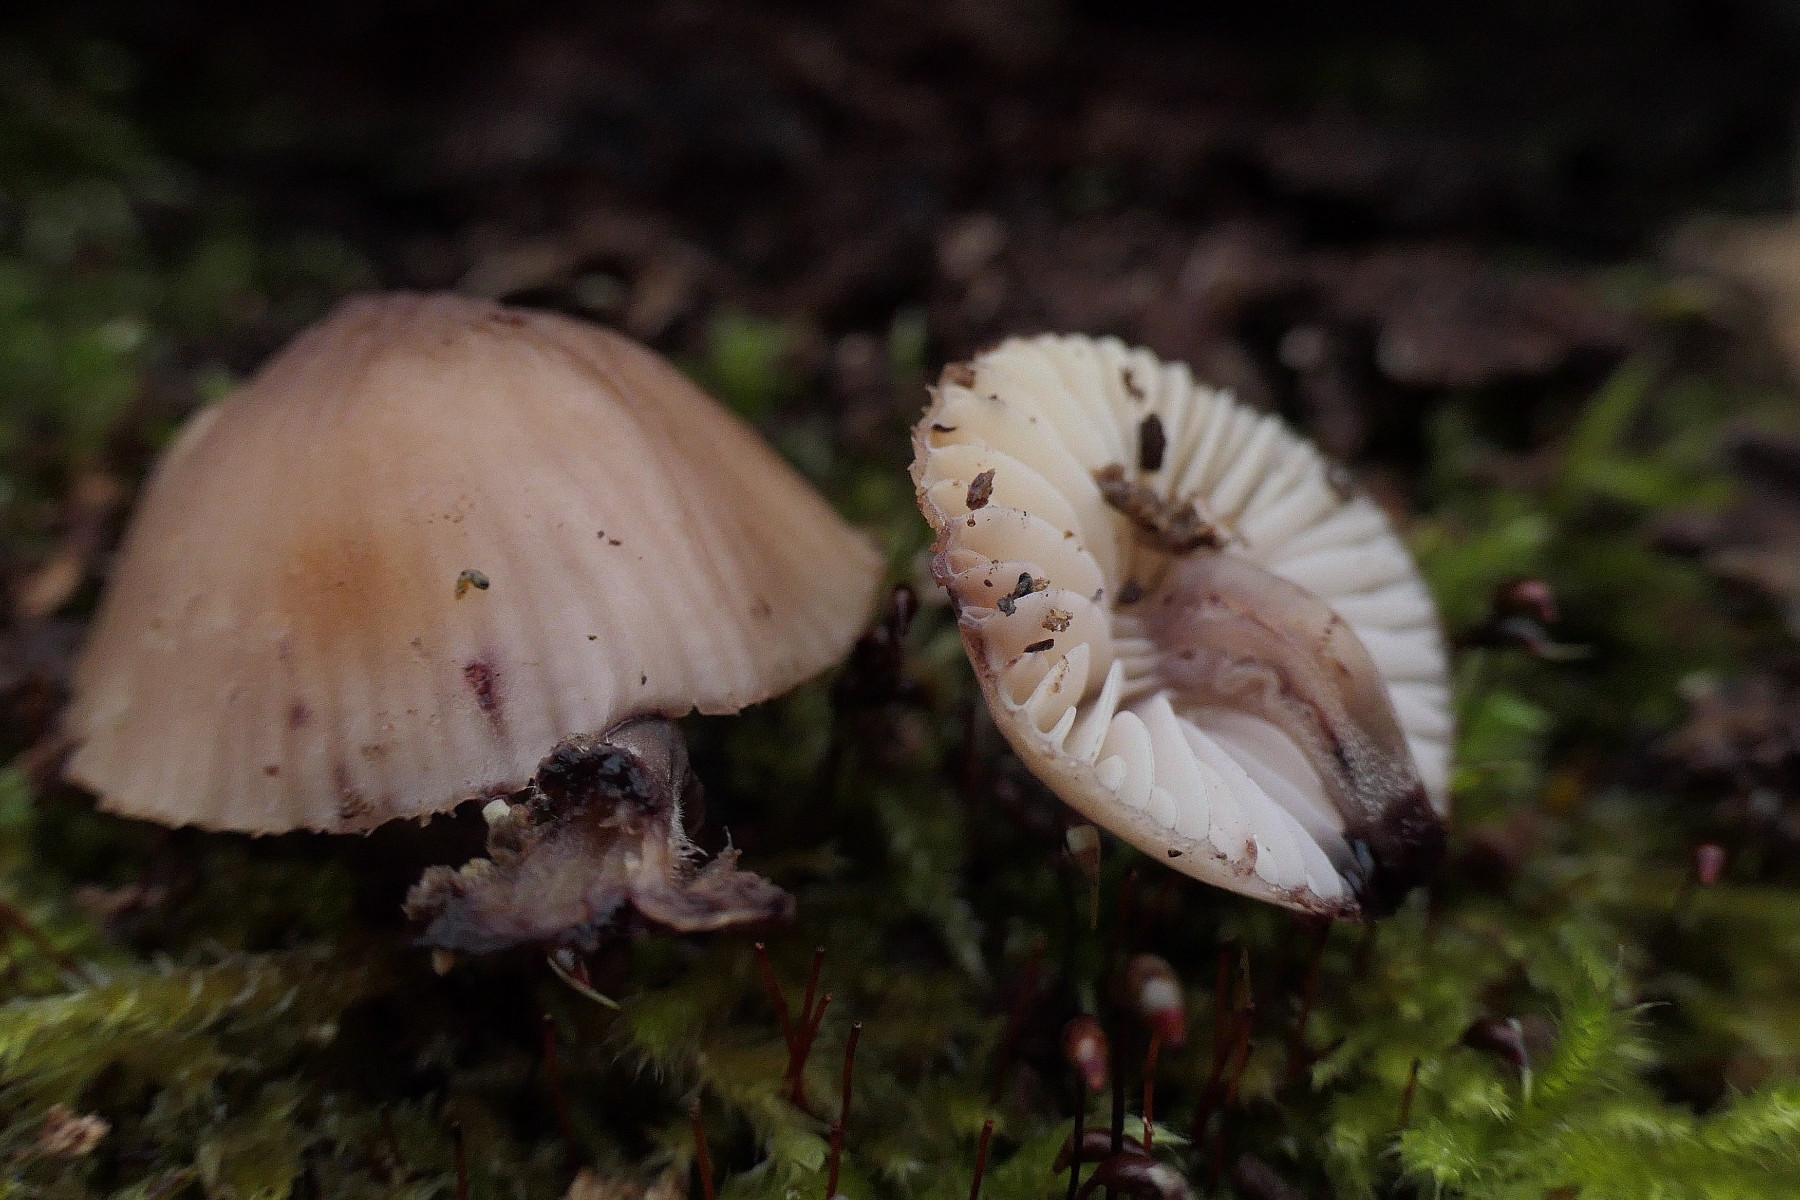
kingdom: Fungi
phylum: Basidiomycota
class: Agaricomycetes
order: Agaricales
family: Mycenaceae
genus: Mycena
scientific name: Mycena haematopus
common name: blødende huesvamp
